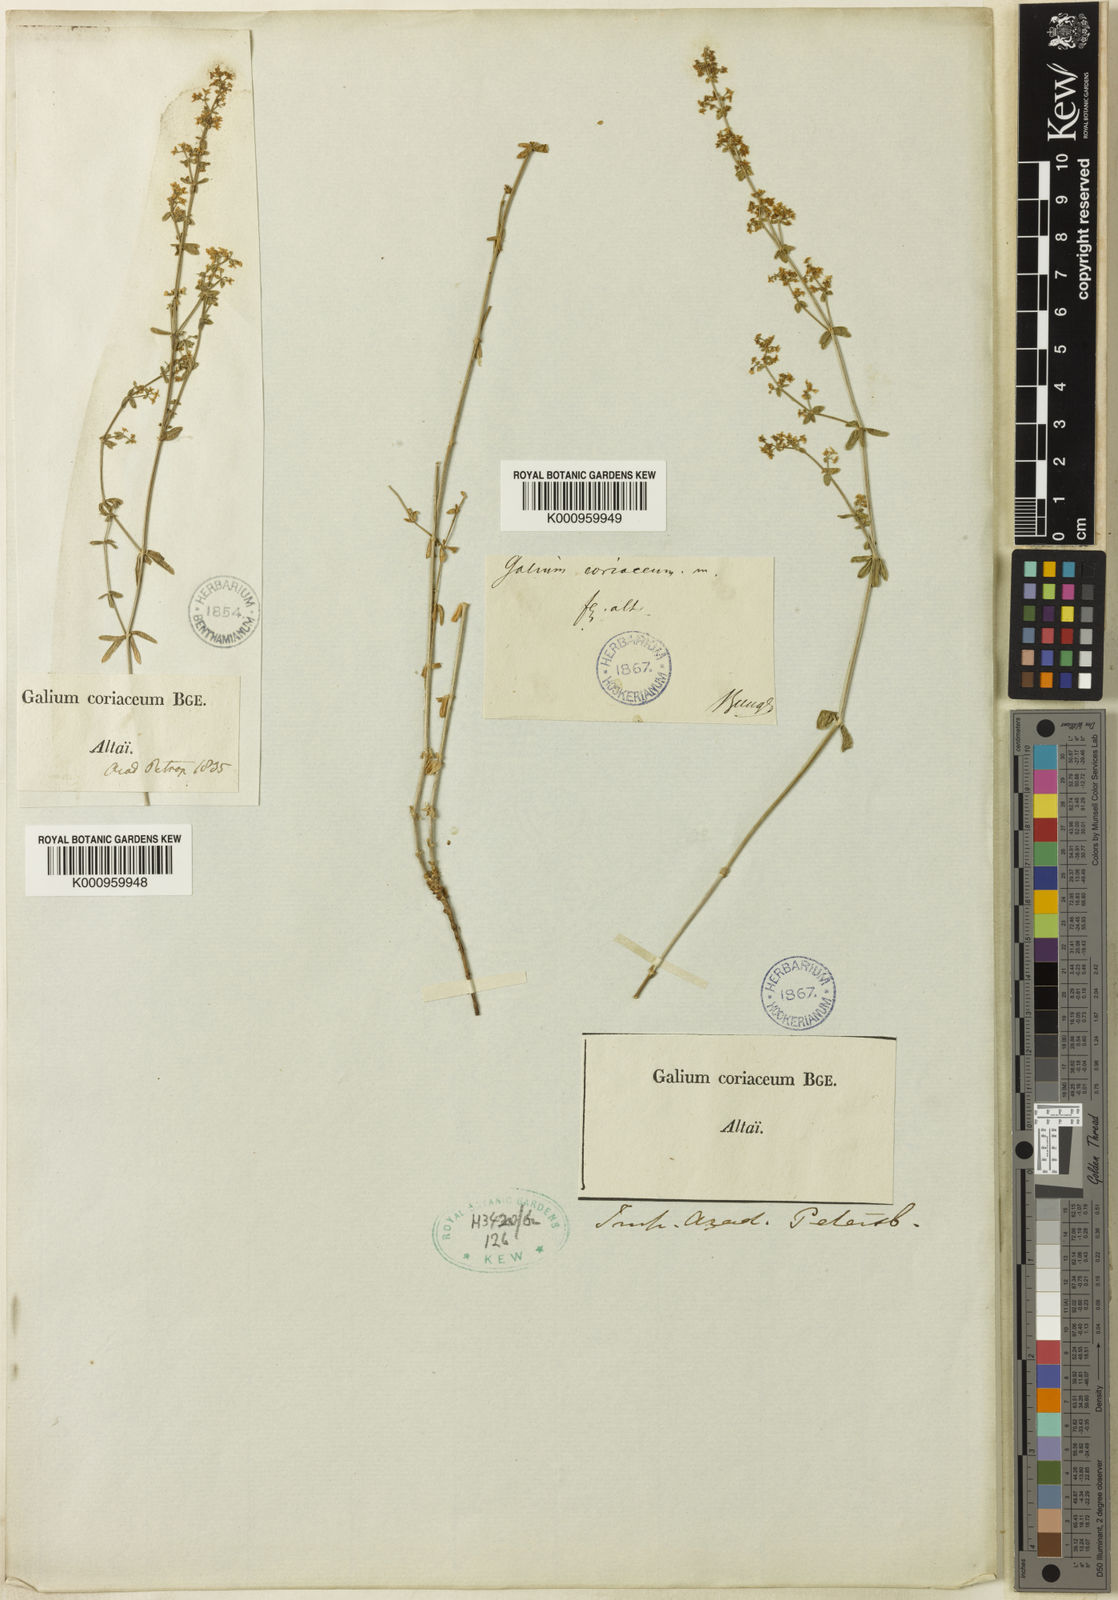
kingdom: Plantae
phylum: Tracheophyta
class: Magnoliopsida
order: Gentianales
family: Rubiaceae
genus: Galium
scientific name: Galium coriaceum
